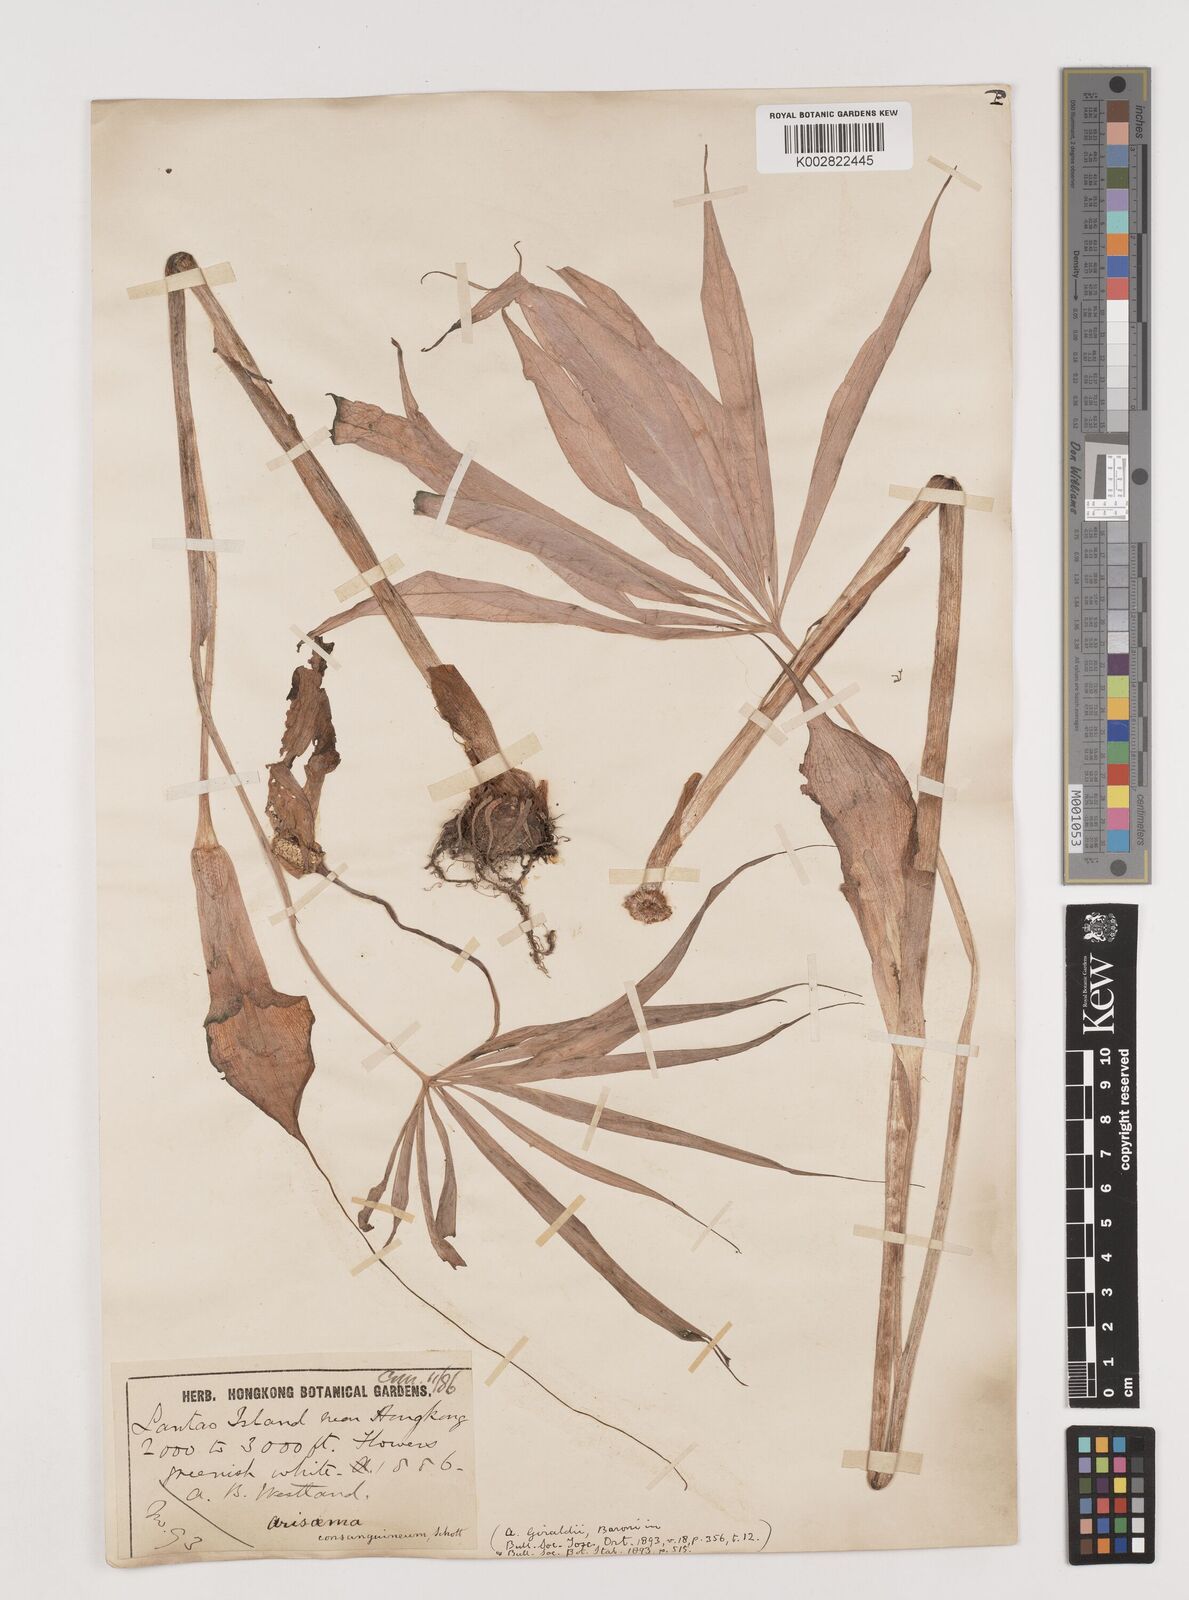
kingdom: Plantae
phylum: Tracheophyta
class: Liliopsida
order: Alismatales
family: Araceae
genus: Arisaema
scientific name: Arisaema erubescens
